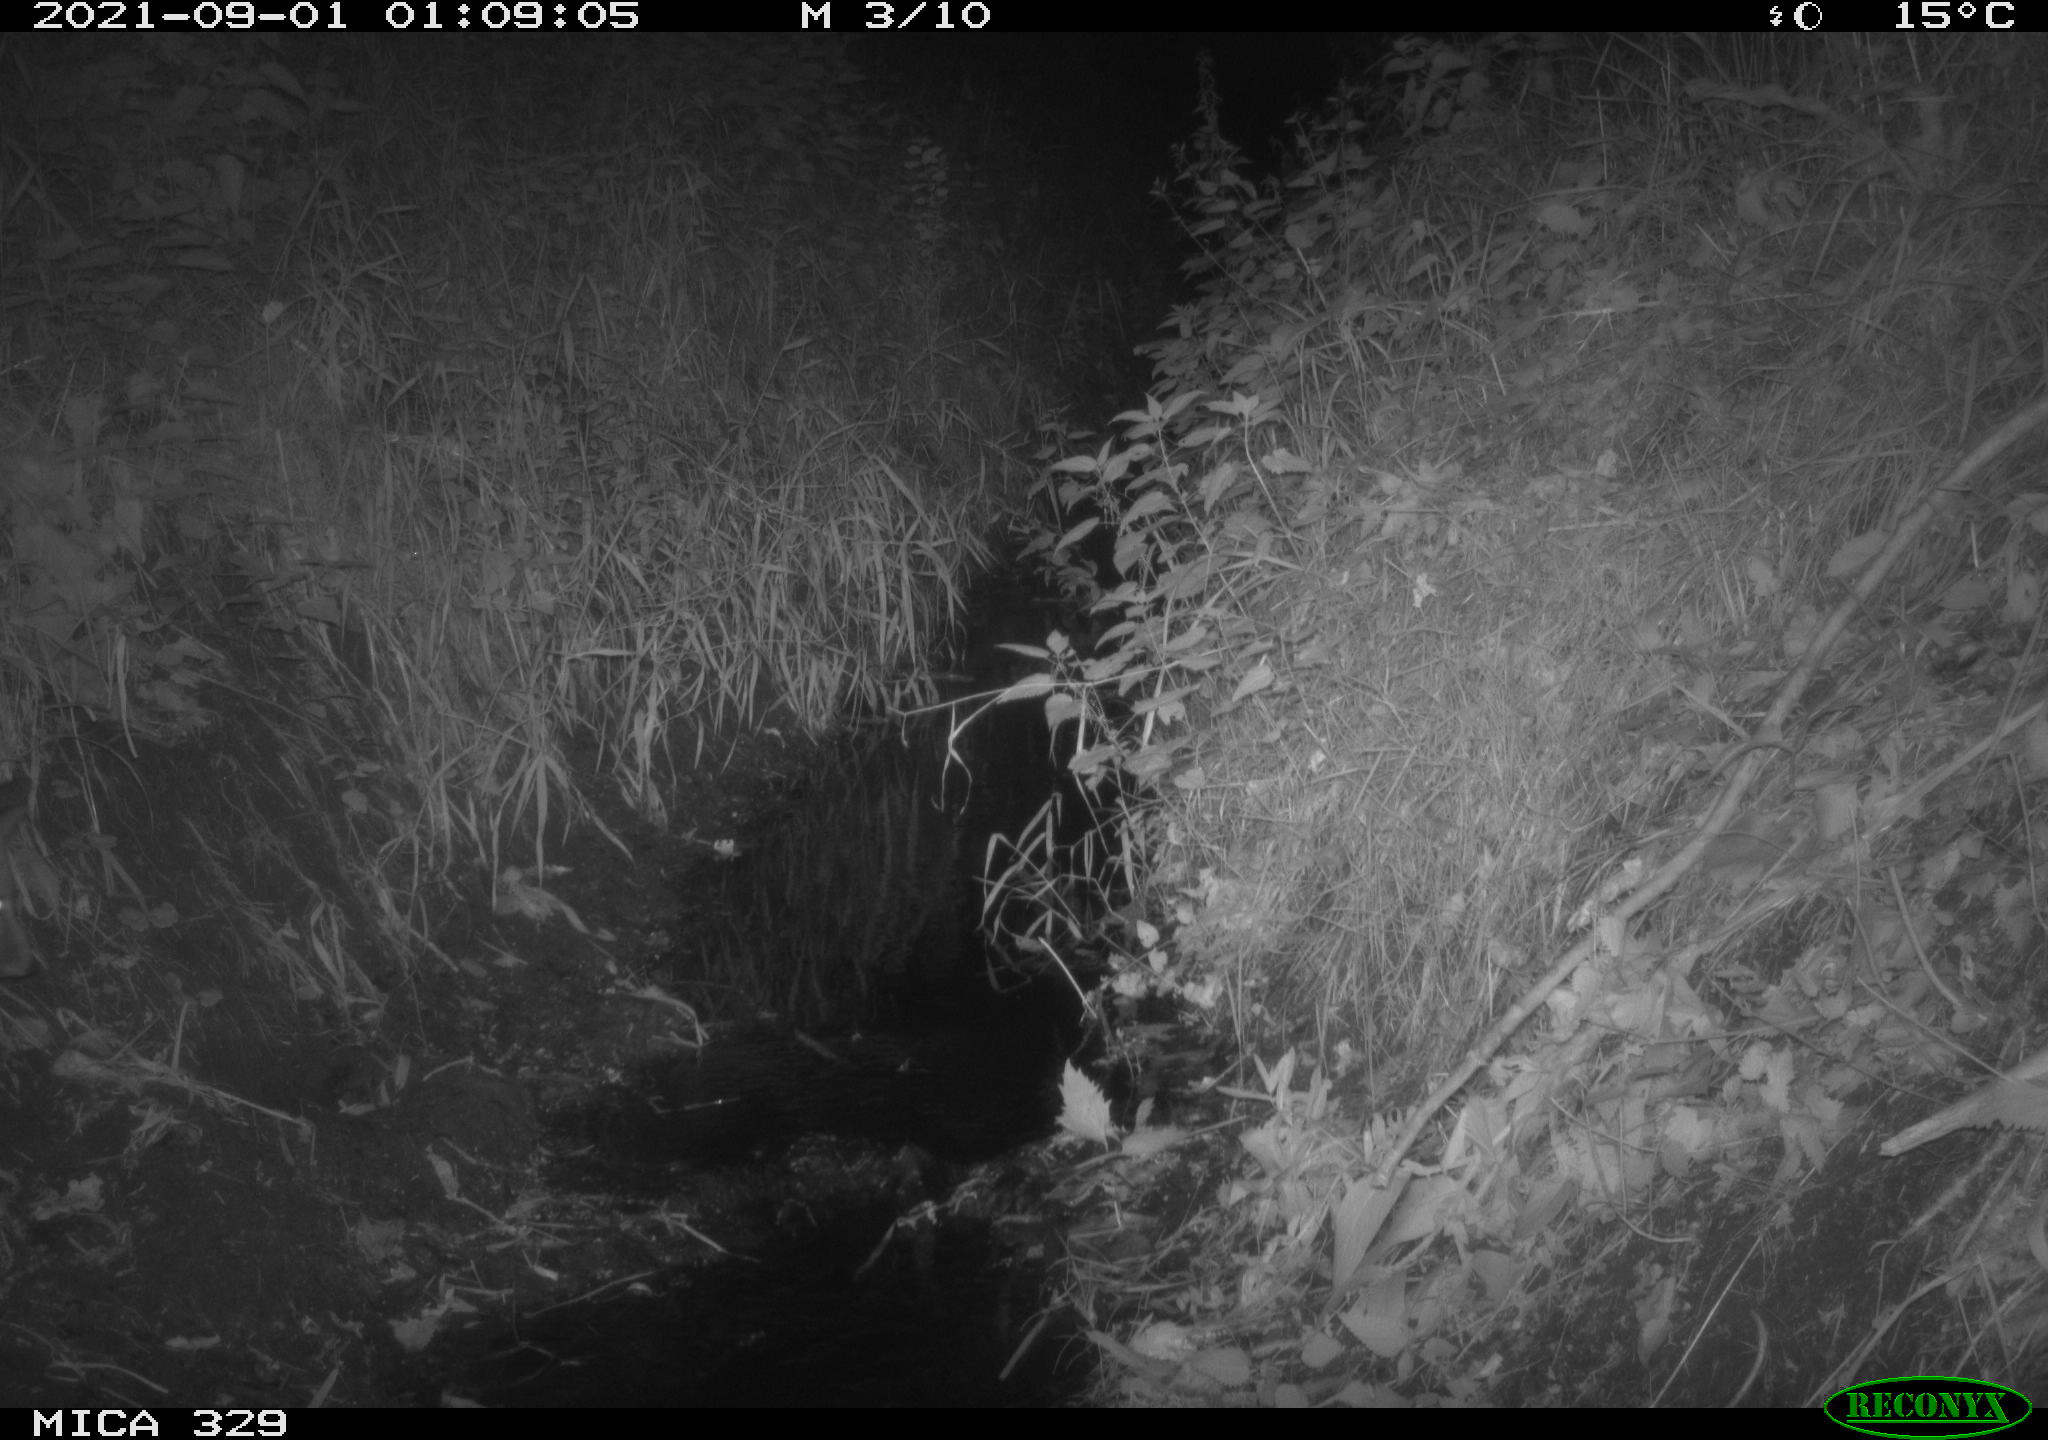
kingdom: Animalia
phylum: Chordata
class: Mammalia
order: Carnivora
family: Canidae
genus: Vulpes
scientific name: Vulpes vulpes
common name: Red fox
